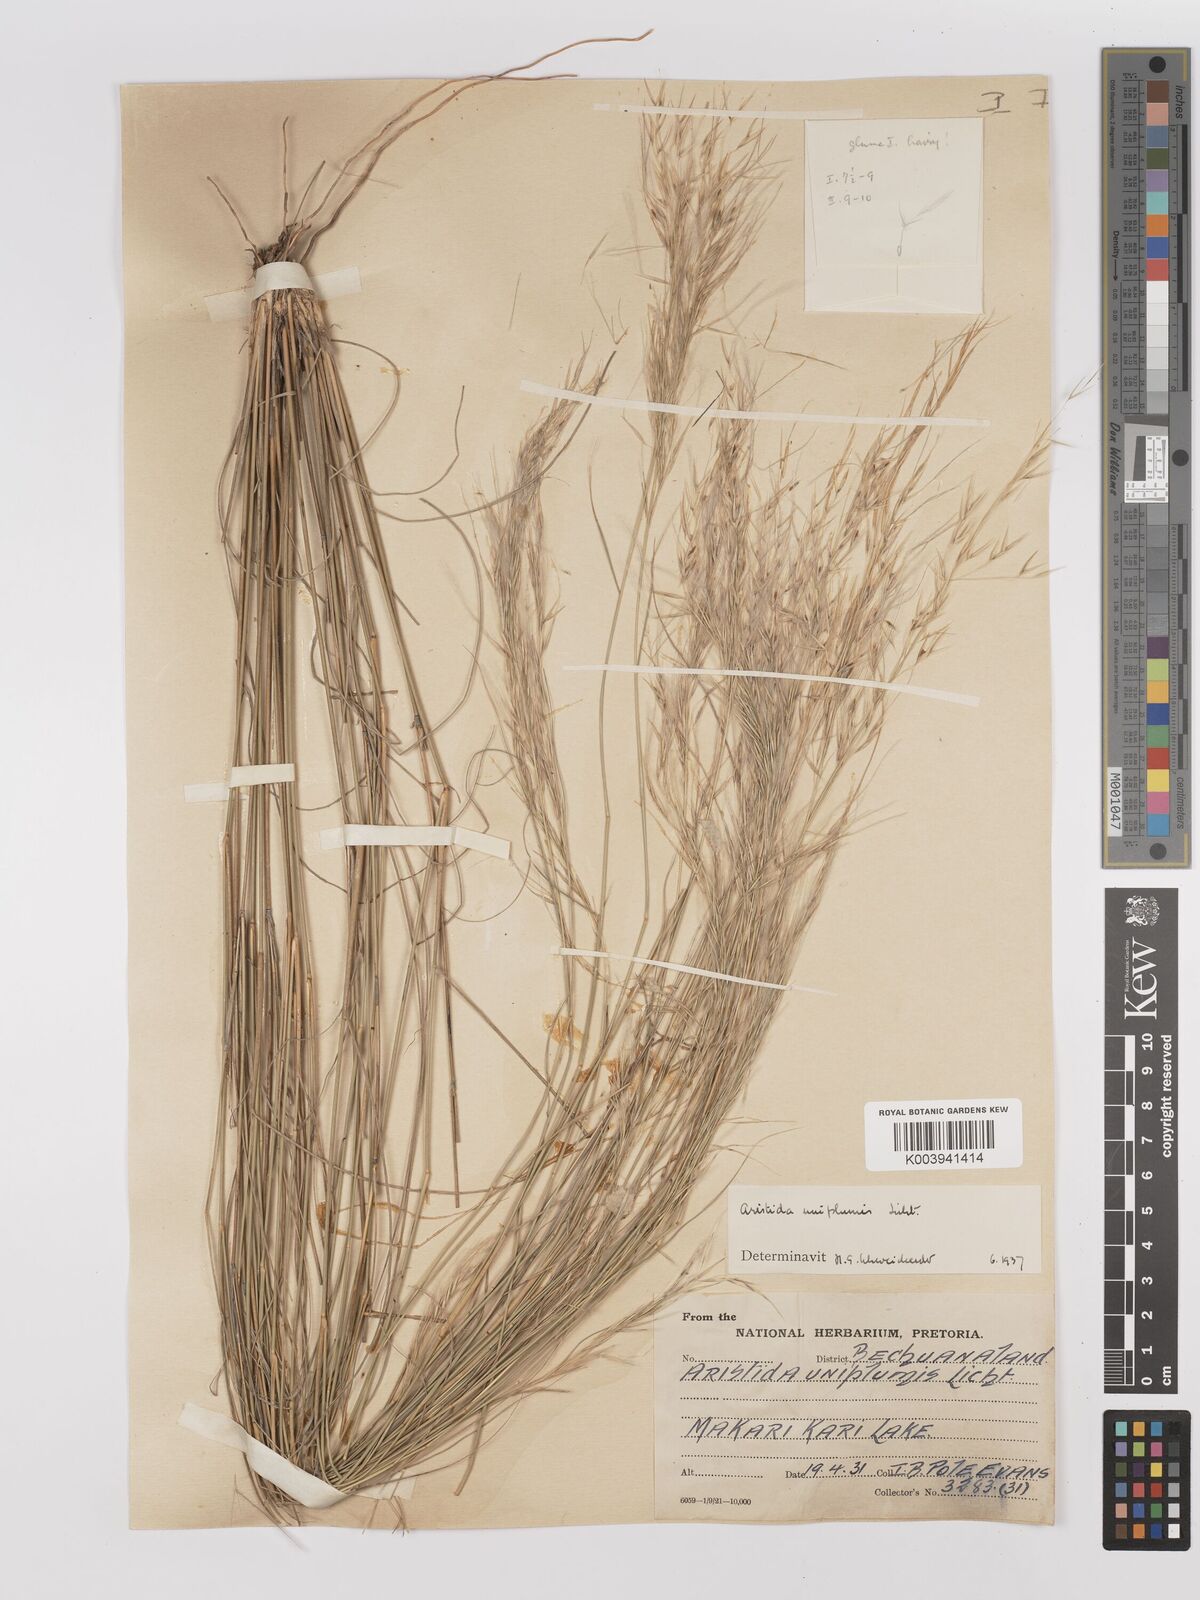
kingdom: Plantae
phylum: Tracheophyta
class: Liliopsida
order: Poales
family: Poaceae
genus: Stipagrostis
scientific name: Stipagrostis uniplumis
